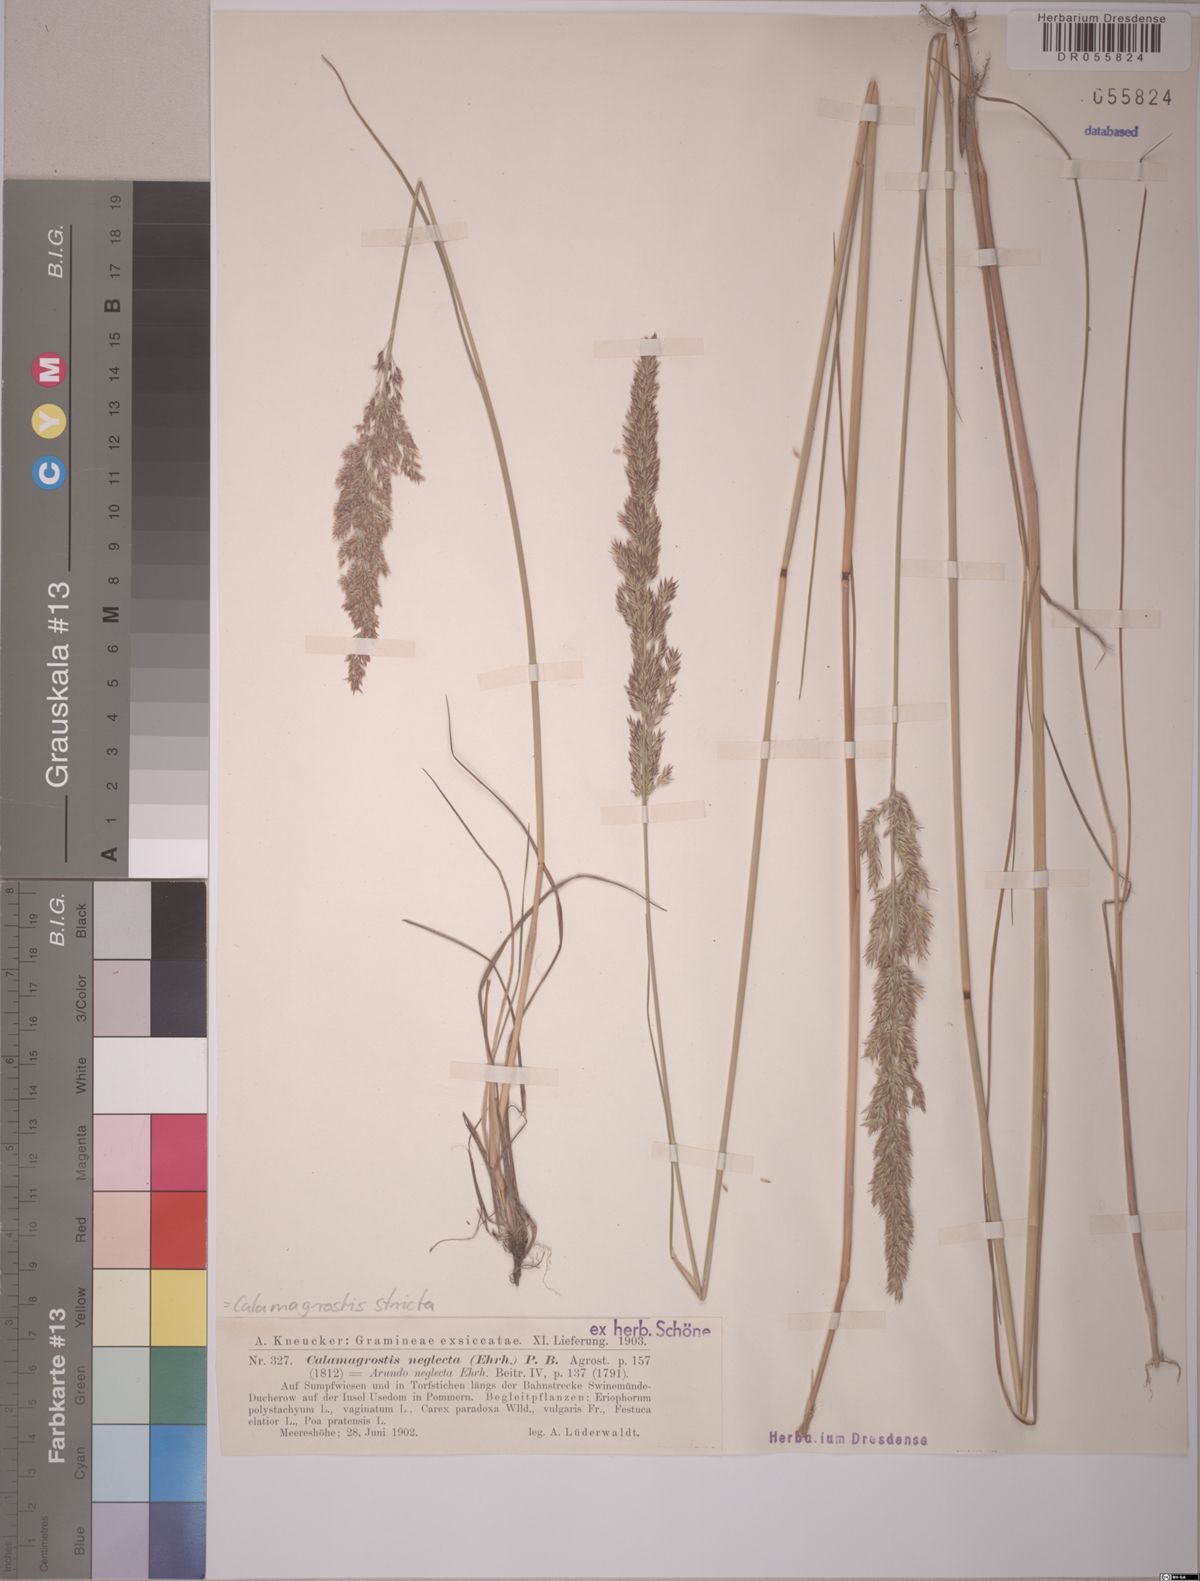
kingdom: Plantae
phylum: Tracheophyta
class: Liliopsida
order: Poales
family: Poaceae
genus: Calamagrostis
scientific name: Calamagrostis stricta
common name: Narrow small-reed
